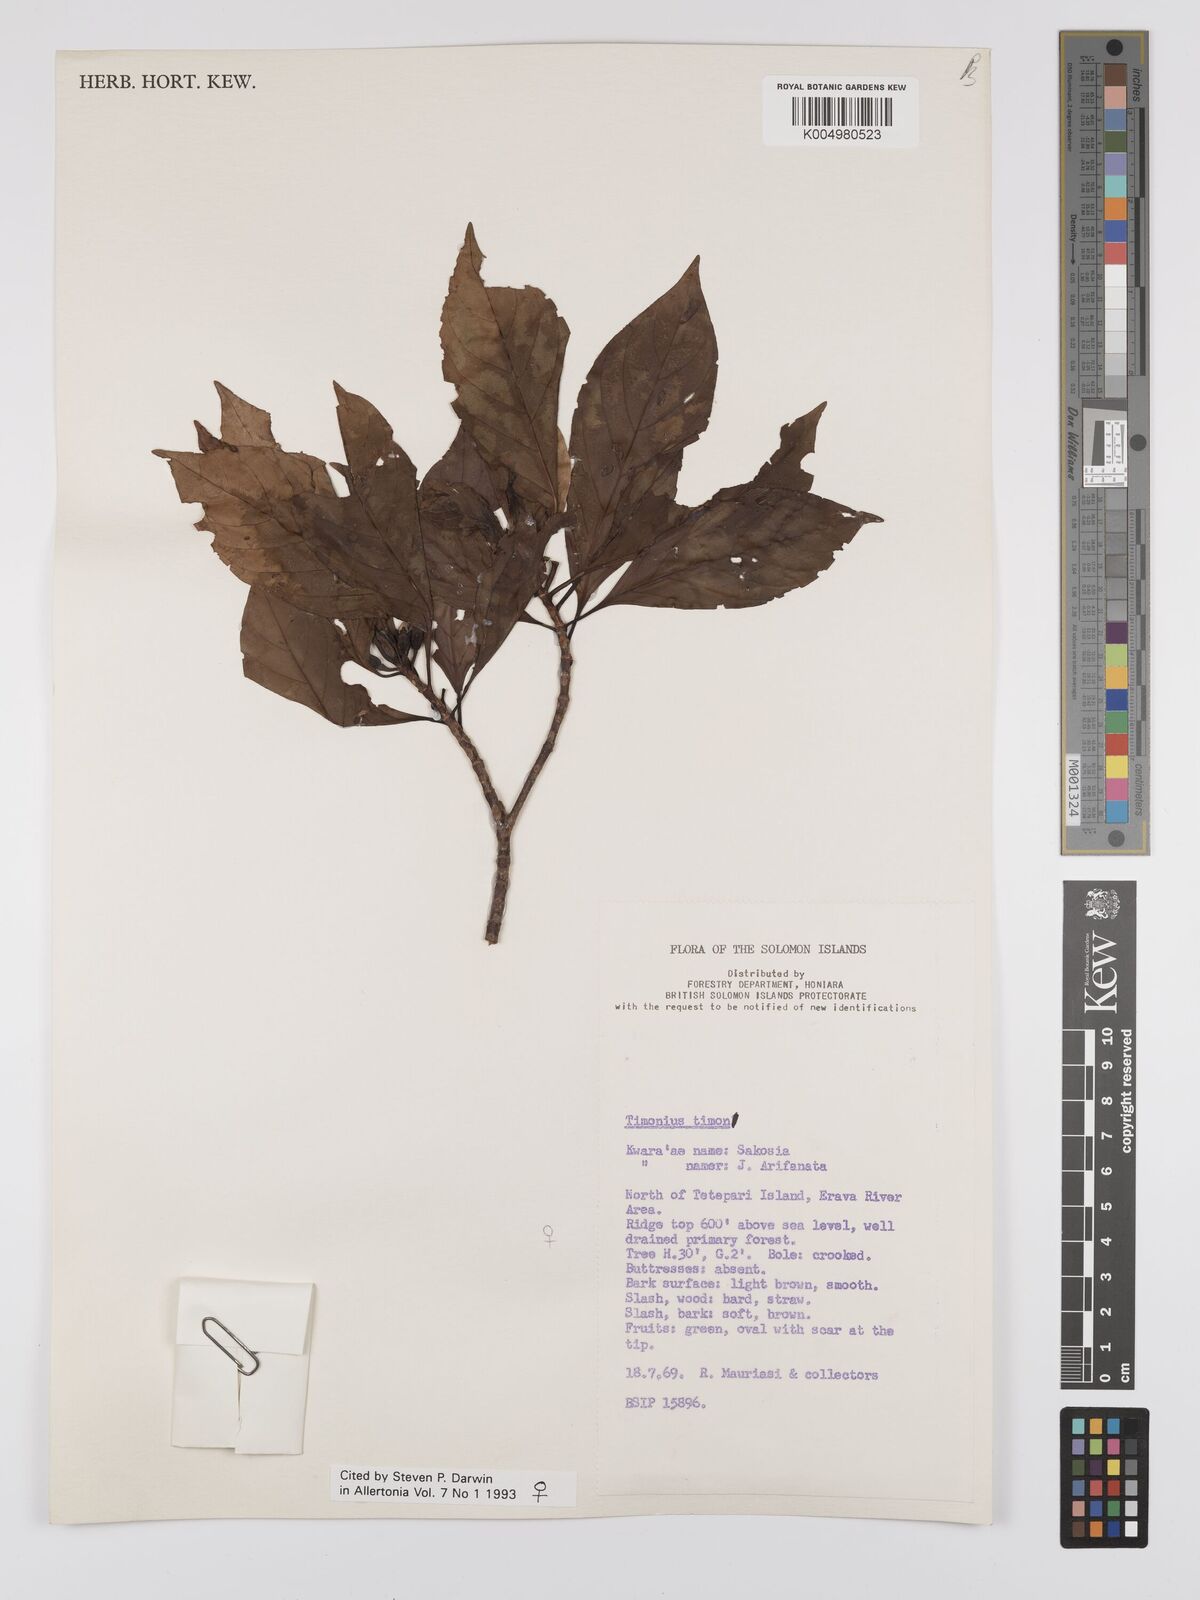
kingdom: Plantae
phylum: Tracheophyta
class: Magnoliopsida
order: Gentianales
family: Rubiaceae
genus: Timonius
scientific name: Timonius timon
